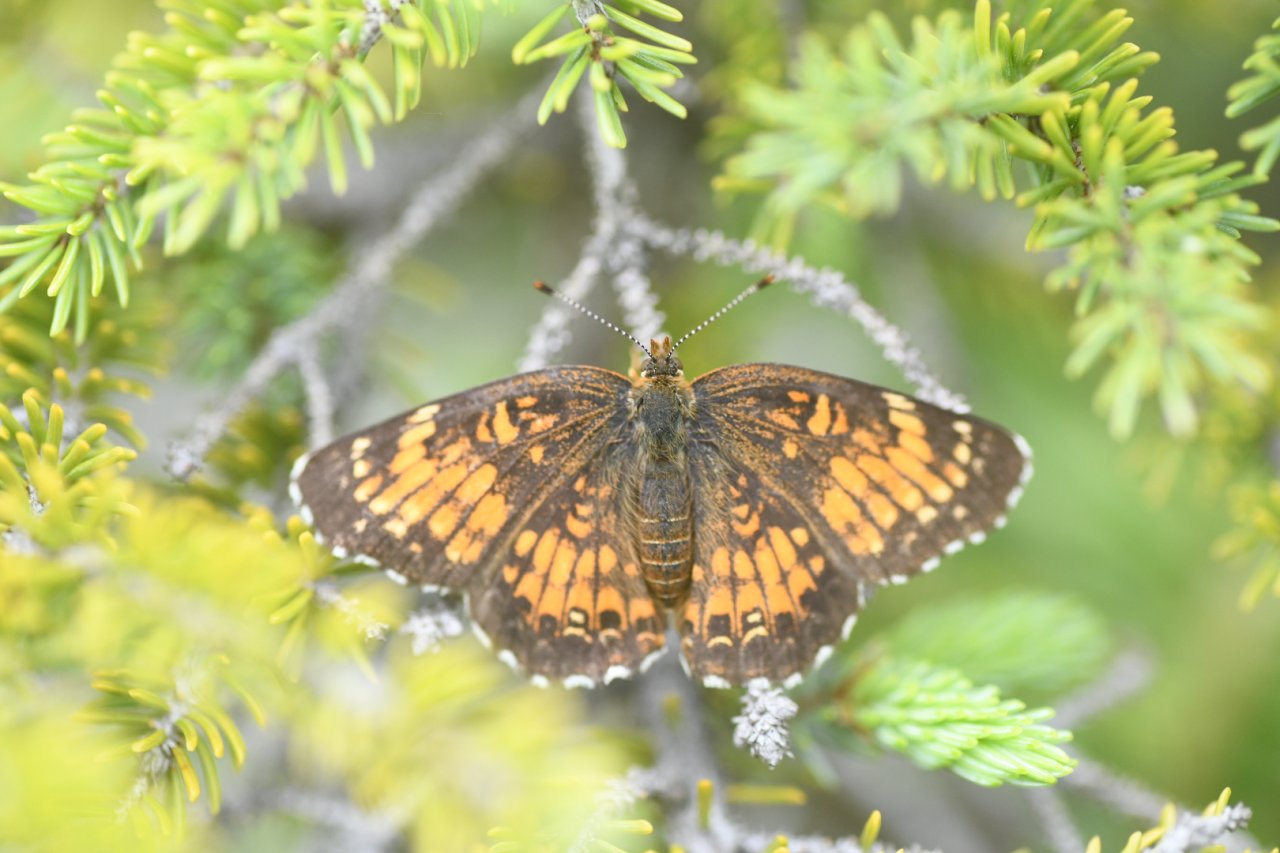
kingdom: Animalia
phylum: Arthropoda
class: Insecta
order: Lepidoptera
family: Nymphalidae
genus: Chlosyne
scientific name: Chlosyne harrisii
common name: Harris's Checkerspot
